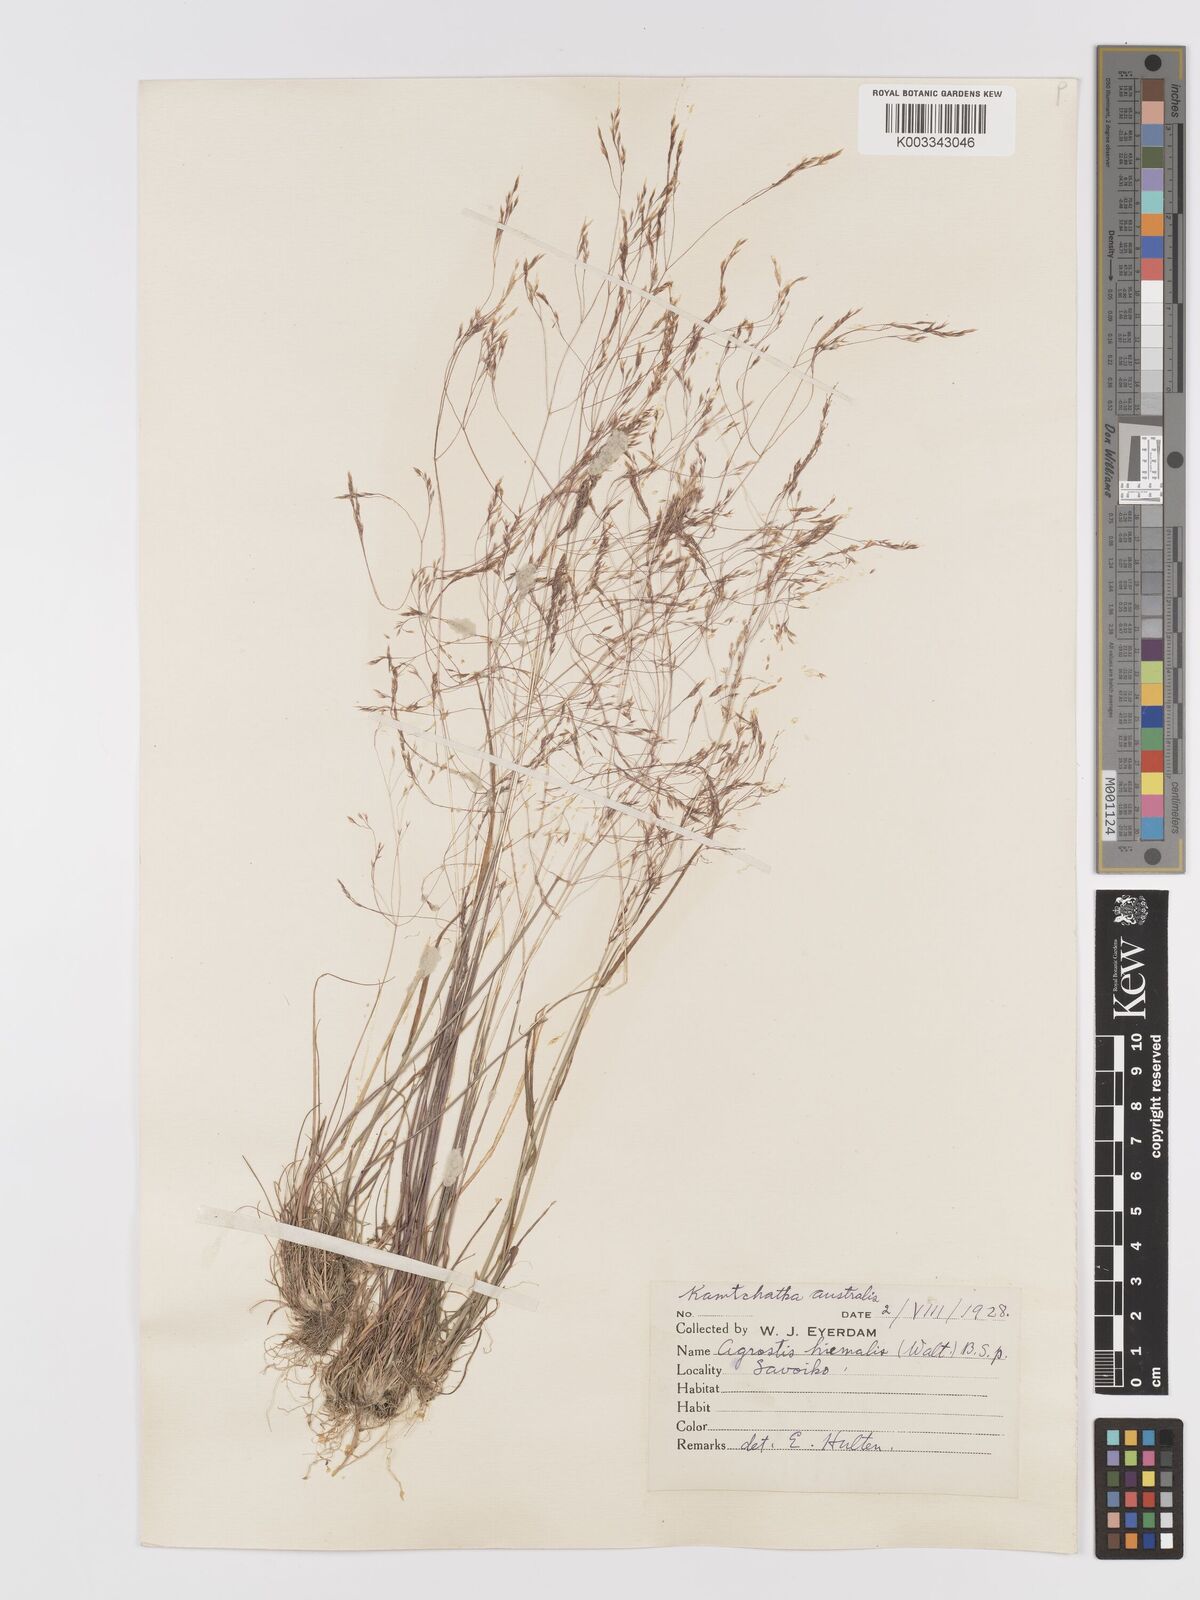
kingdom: Plantae
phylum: Tracheophyta
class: Liliopsida
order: Poales
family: Poaceae
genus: Agrostis
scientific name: Agrostis scabra
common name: Rough bent
